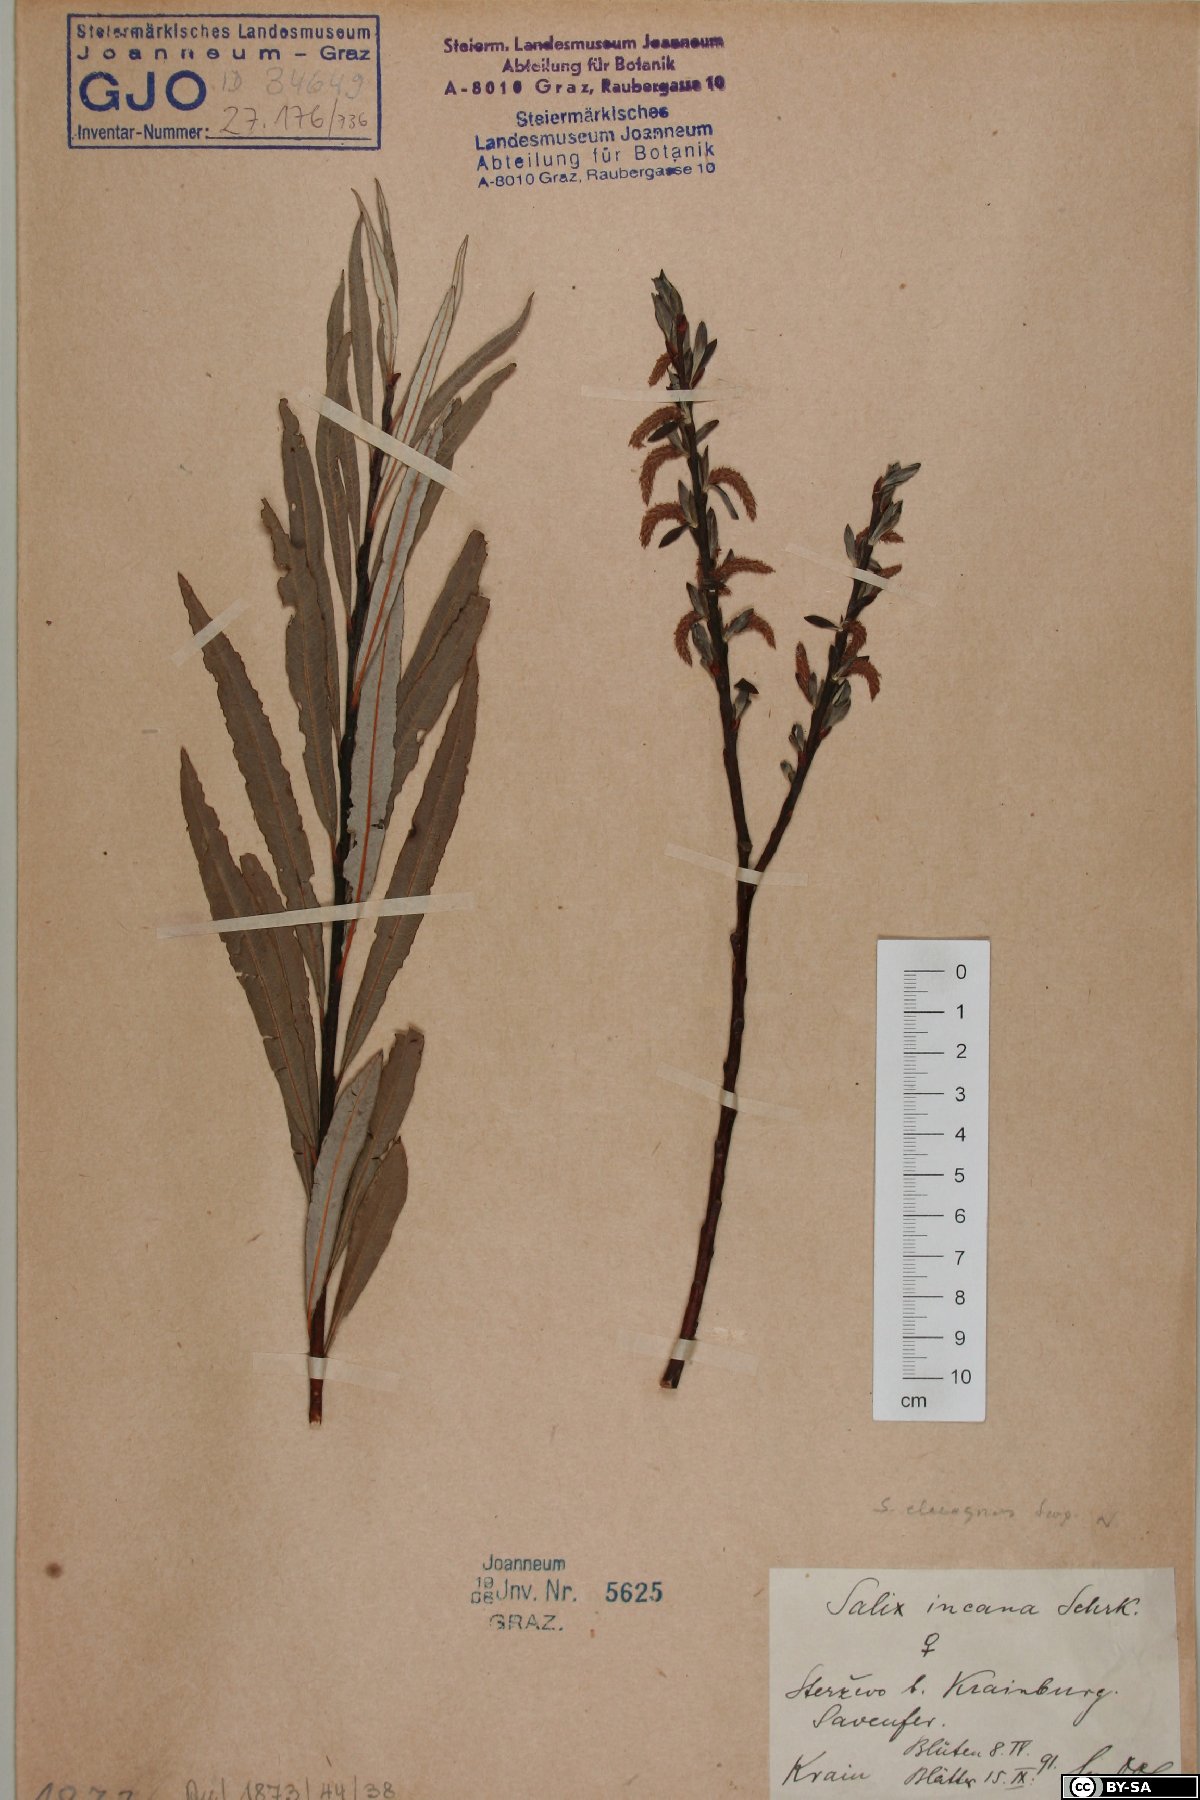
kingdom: Plantae
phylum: Tracheophyta
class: Magnoliopsida
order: Malpighiales
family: Salicaceae
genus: Salix
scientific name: Salix eleagnos
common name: Elaeagnus willow
